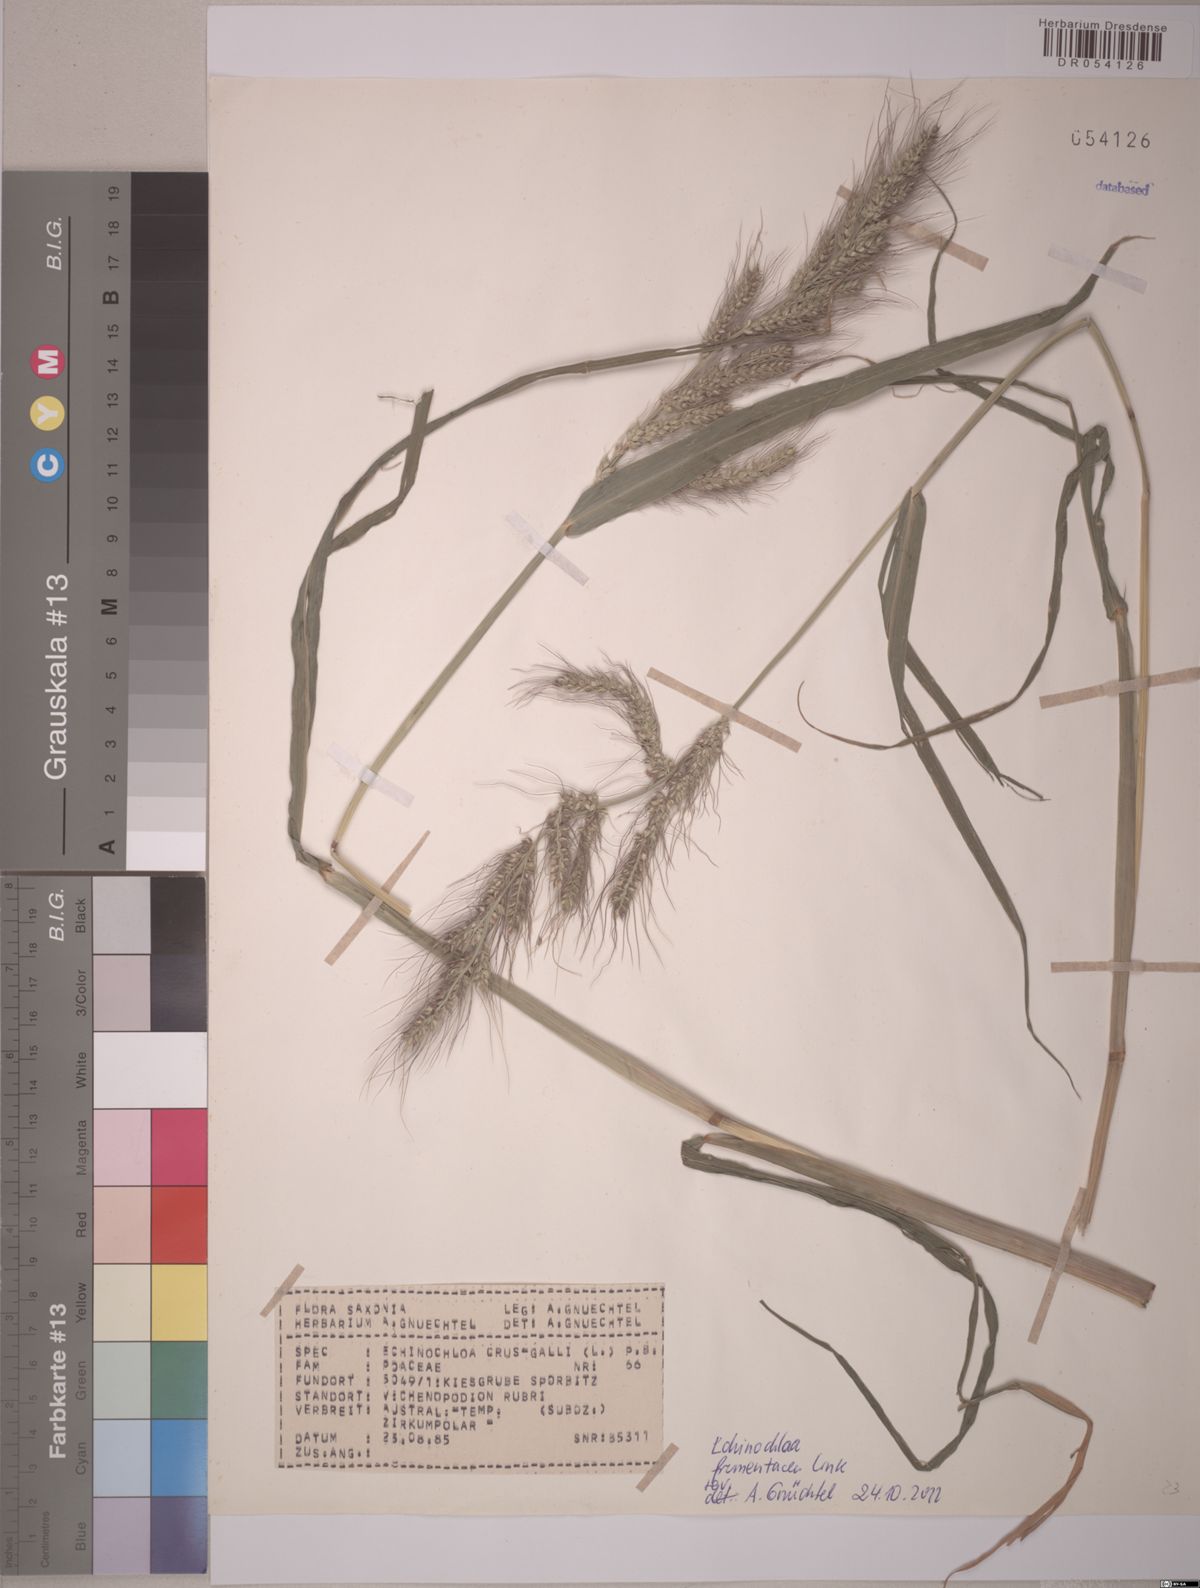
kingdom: Plantae
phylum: Tracheophyta
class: Liliopsida
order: Poales
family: Poaceae
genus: Echinochloa
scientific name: Echinochloa frumentacea
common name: Billion-dollar grass
